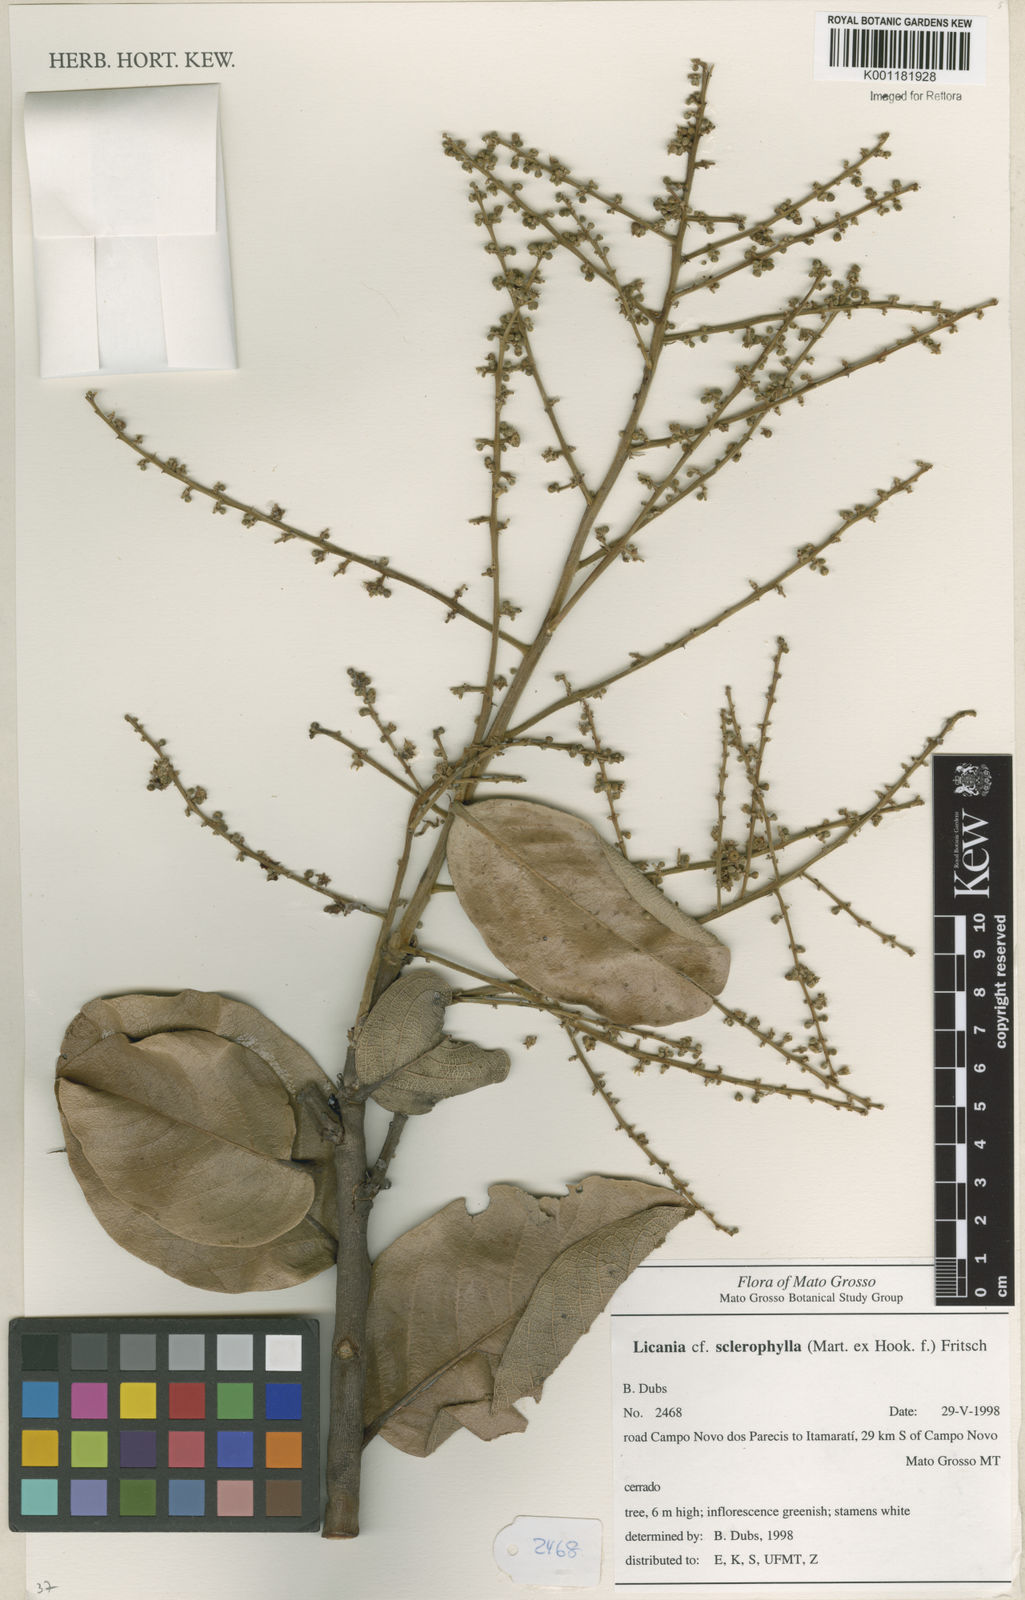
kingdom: Plantae
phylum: Tracheophyta
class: Magnoliopsida
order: Malpighiales
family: Chrysobalanaceae
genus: Leptobalanus
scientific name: Leptobalanus sclerophyllus
